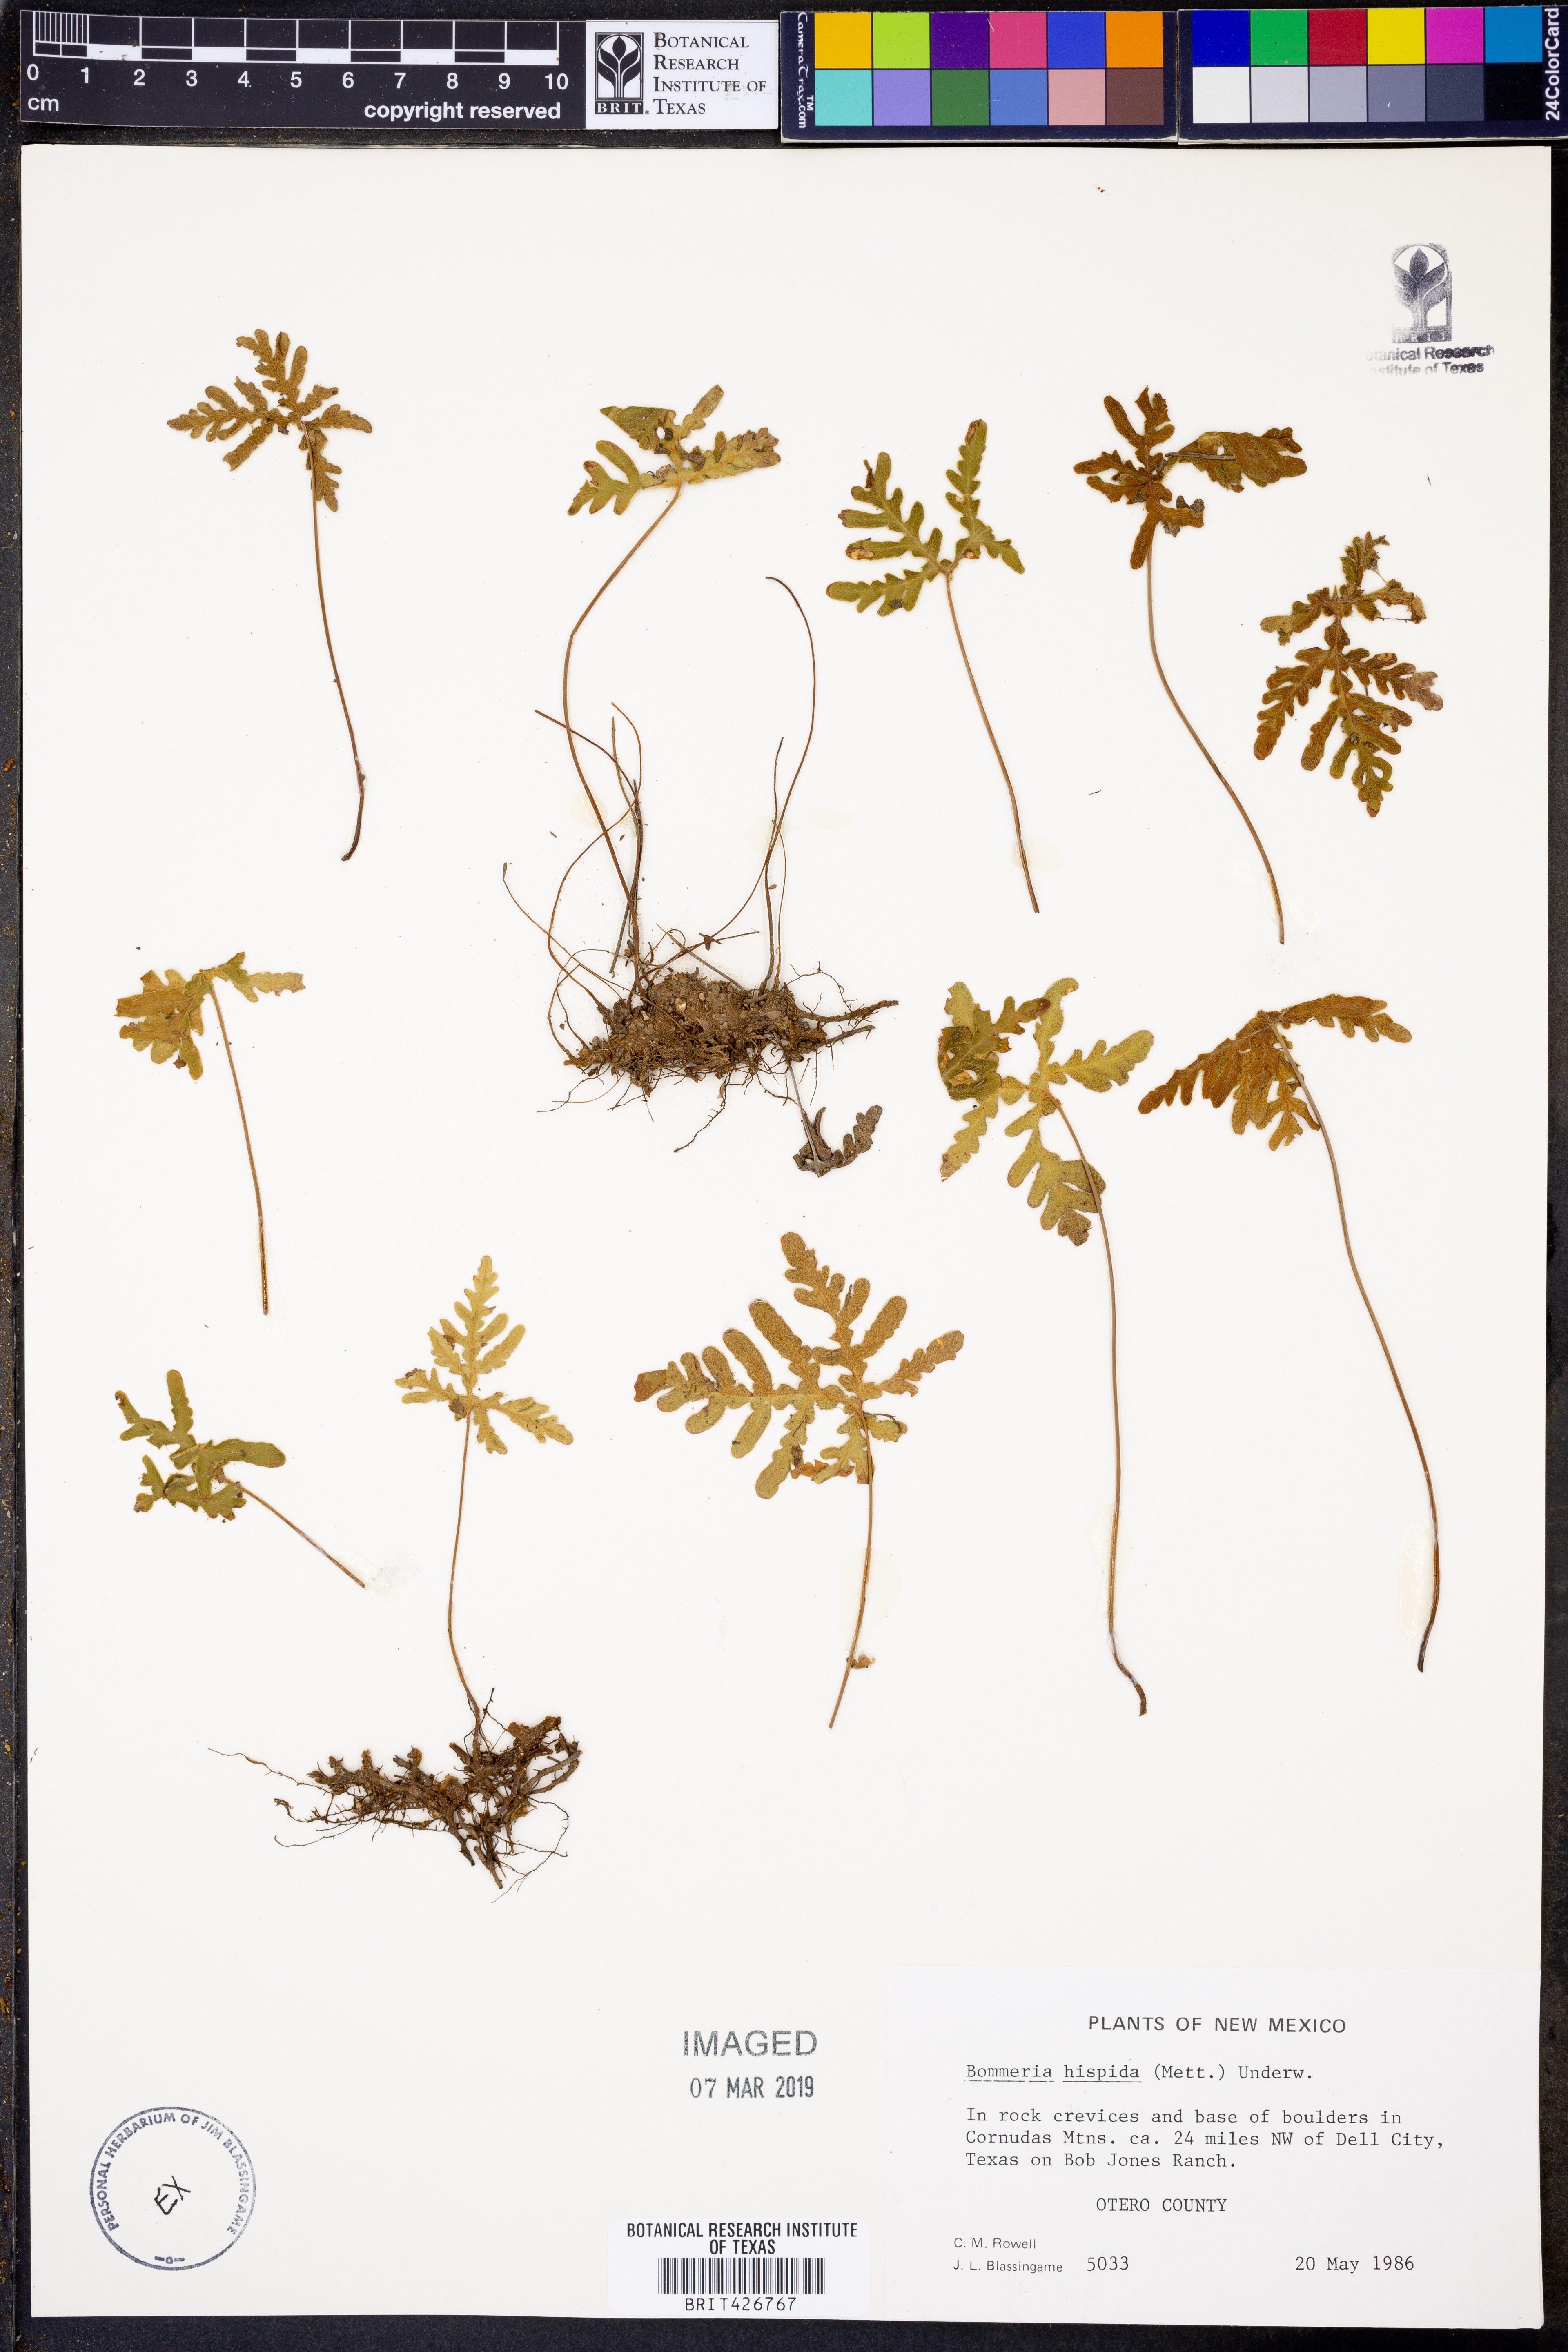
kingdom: Plantae
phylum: Tracheophyta
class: Polypodiopsida
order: Polypodiales
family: Pteridaceae
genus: Bommeria
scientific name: Bommeria hispida
